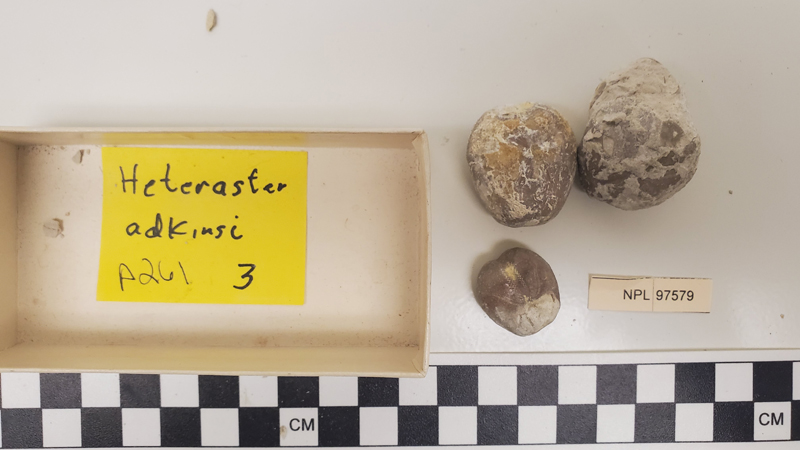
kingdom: Animalia
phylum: Echinodermata
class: Echinoidea
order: Spatangoida
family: Toxasteridae
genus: Heteraster
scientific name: Heteraster adkinsi
